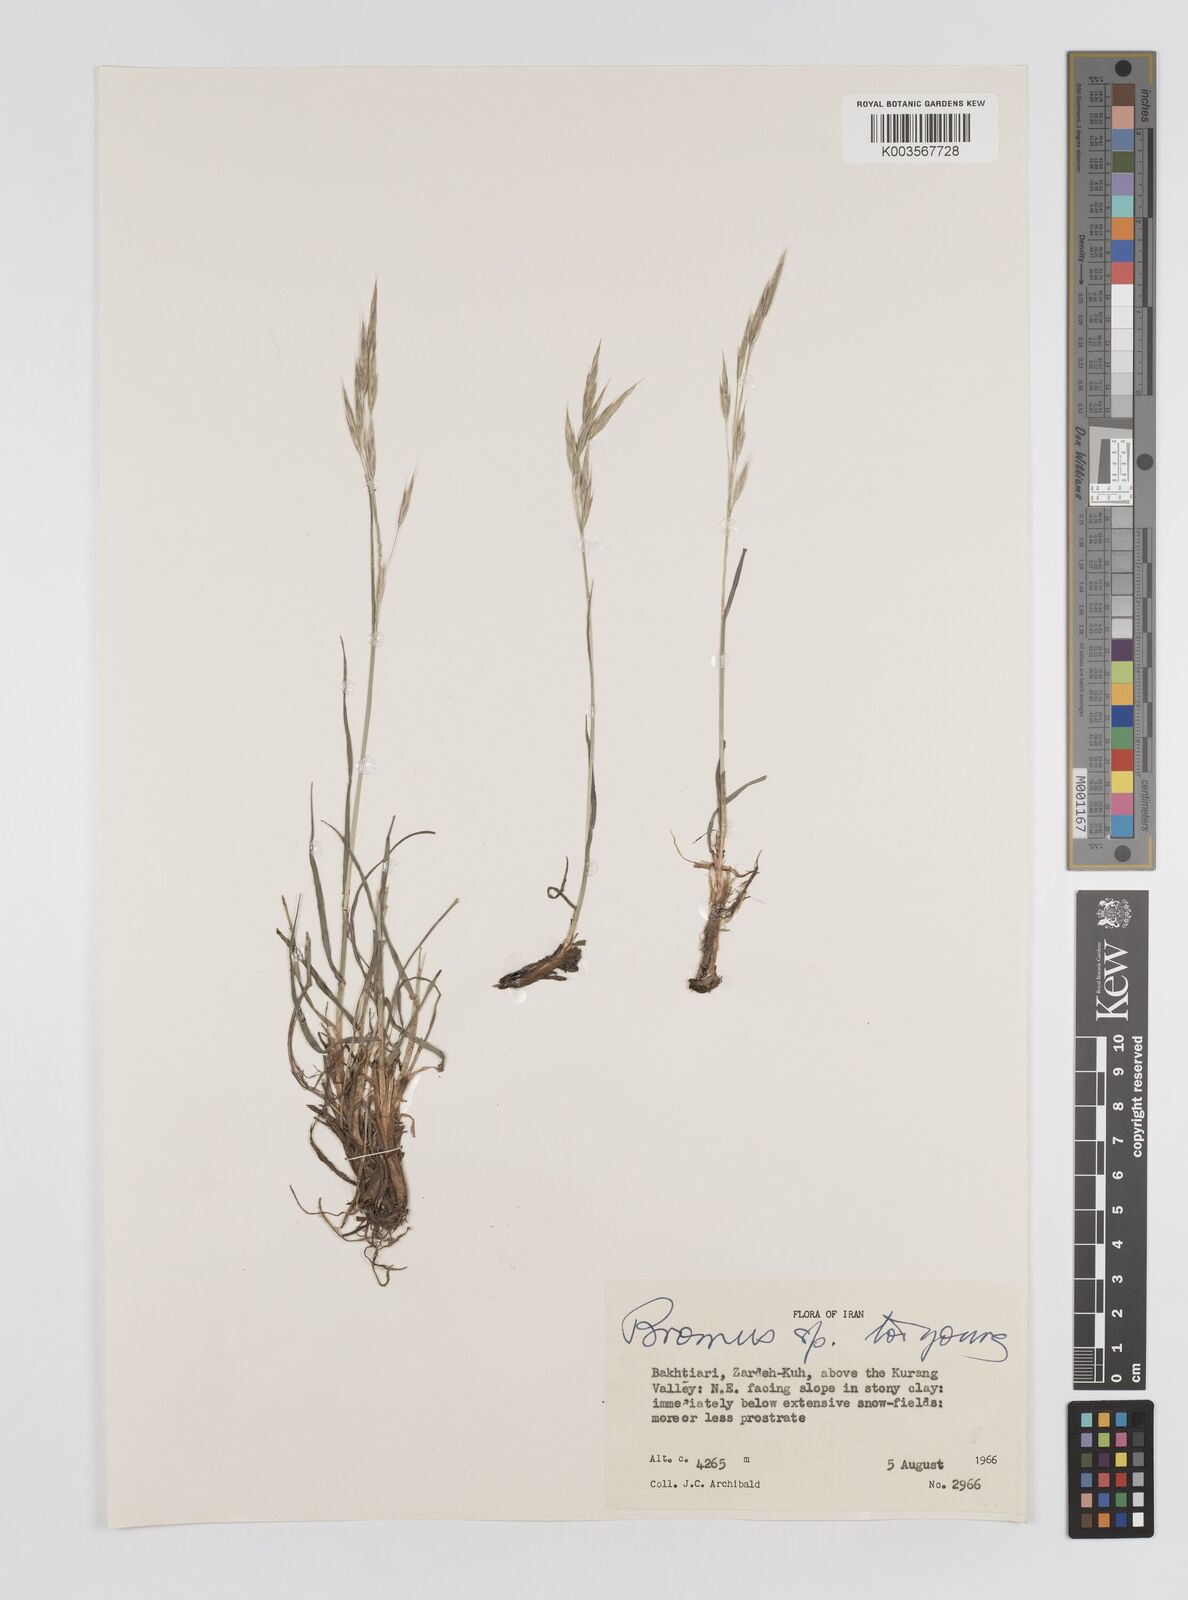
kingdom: Plantae
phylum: Tracheophyta
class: Liliopsida
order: Poales
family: Poaceae
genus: Bromus
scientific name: Bromus
